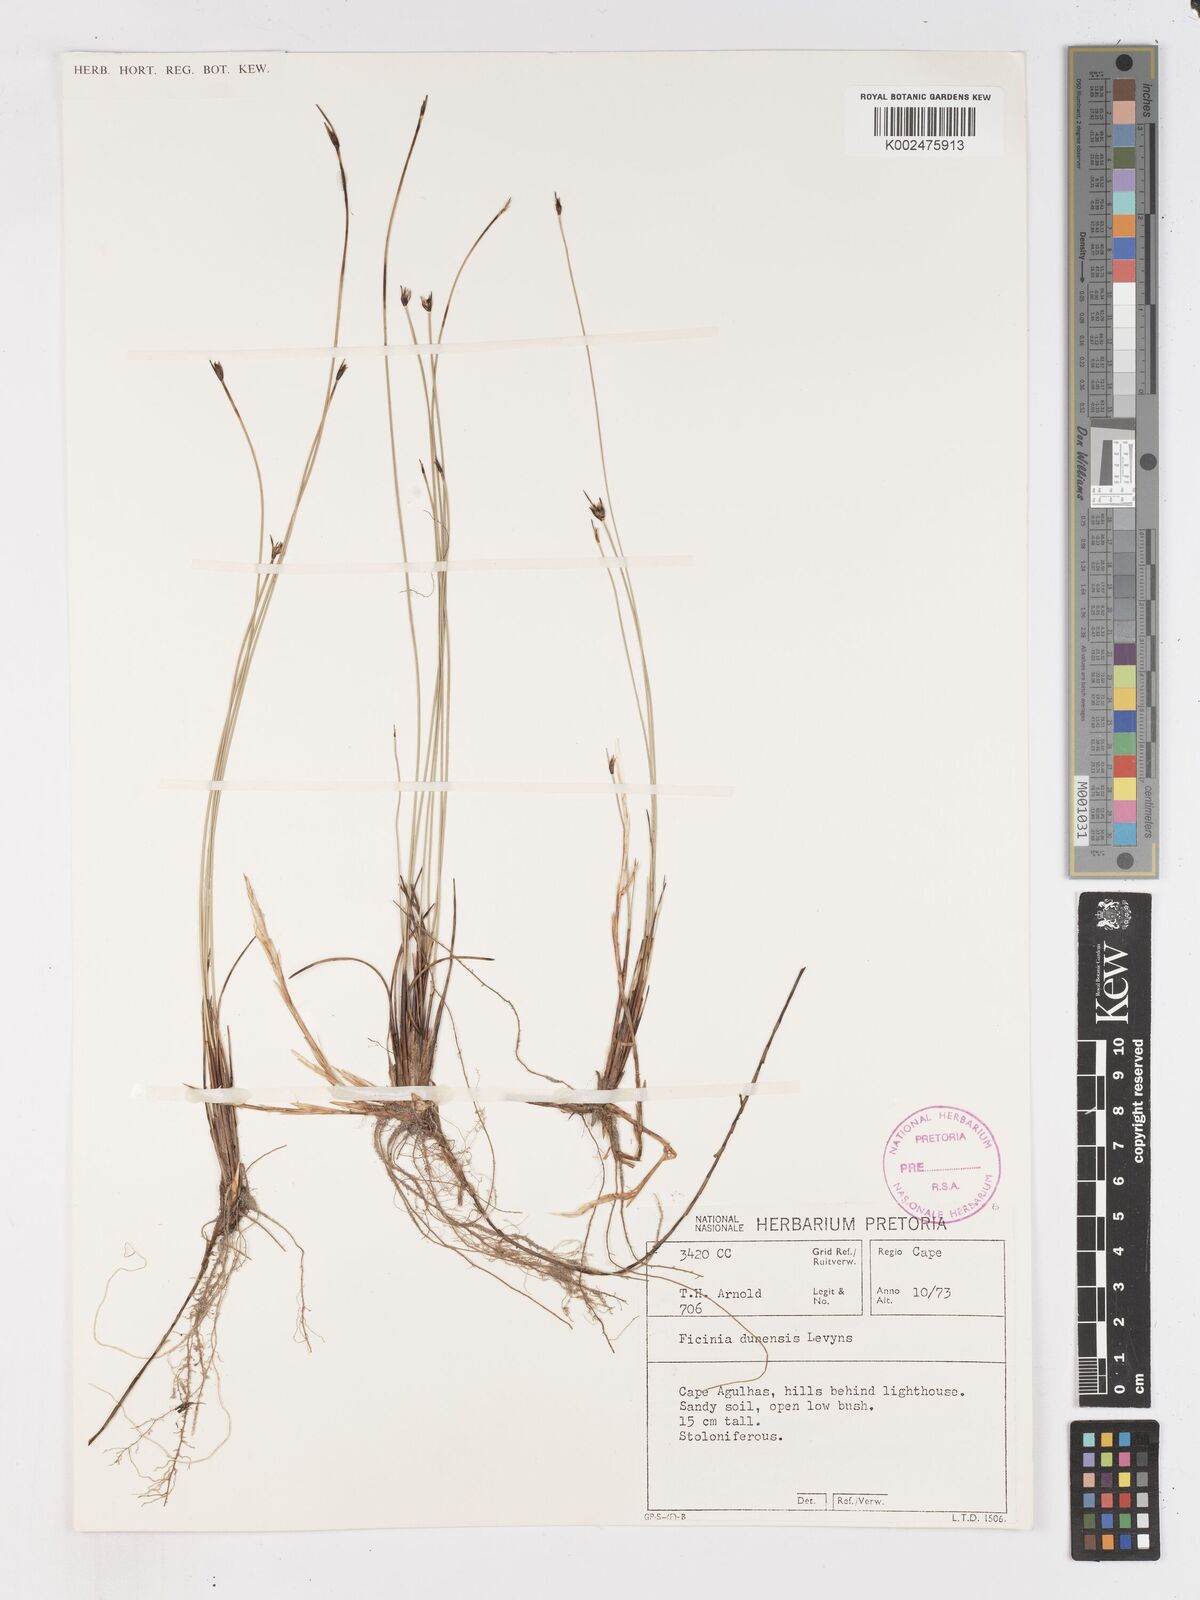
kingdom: Plantae
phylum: Tracheophyta
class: Liliopsida
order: Poales
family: Cyperaceae
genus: Ficinia
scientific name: Ficinia dunensis
